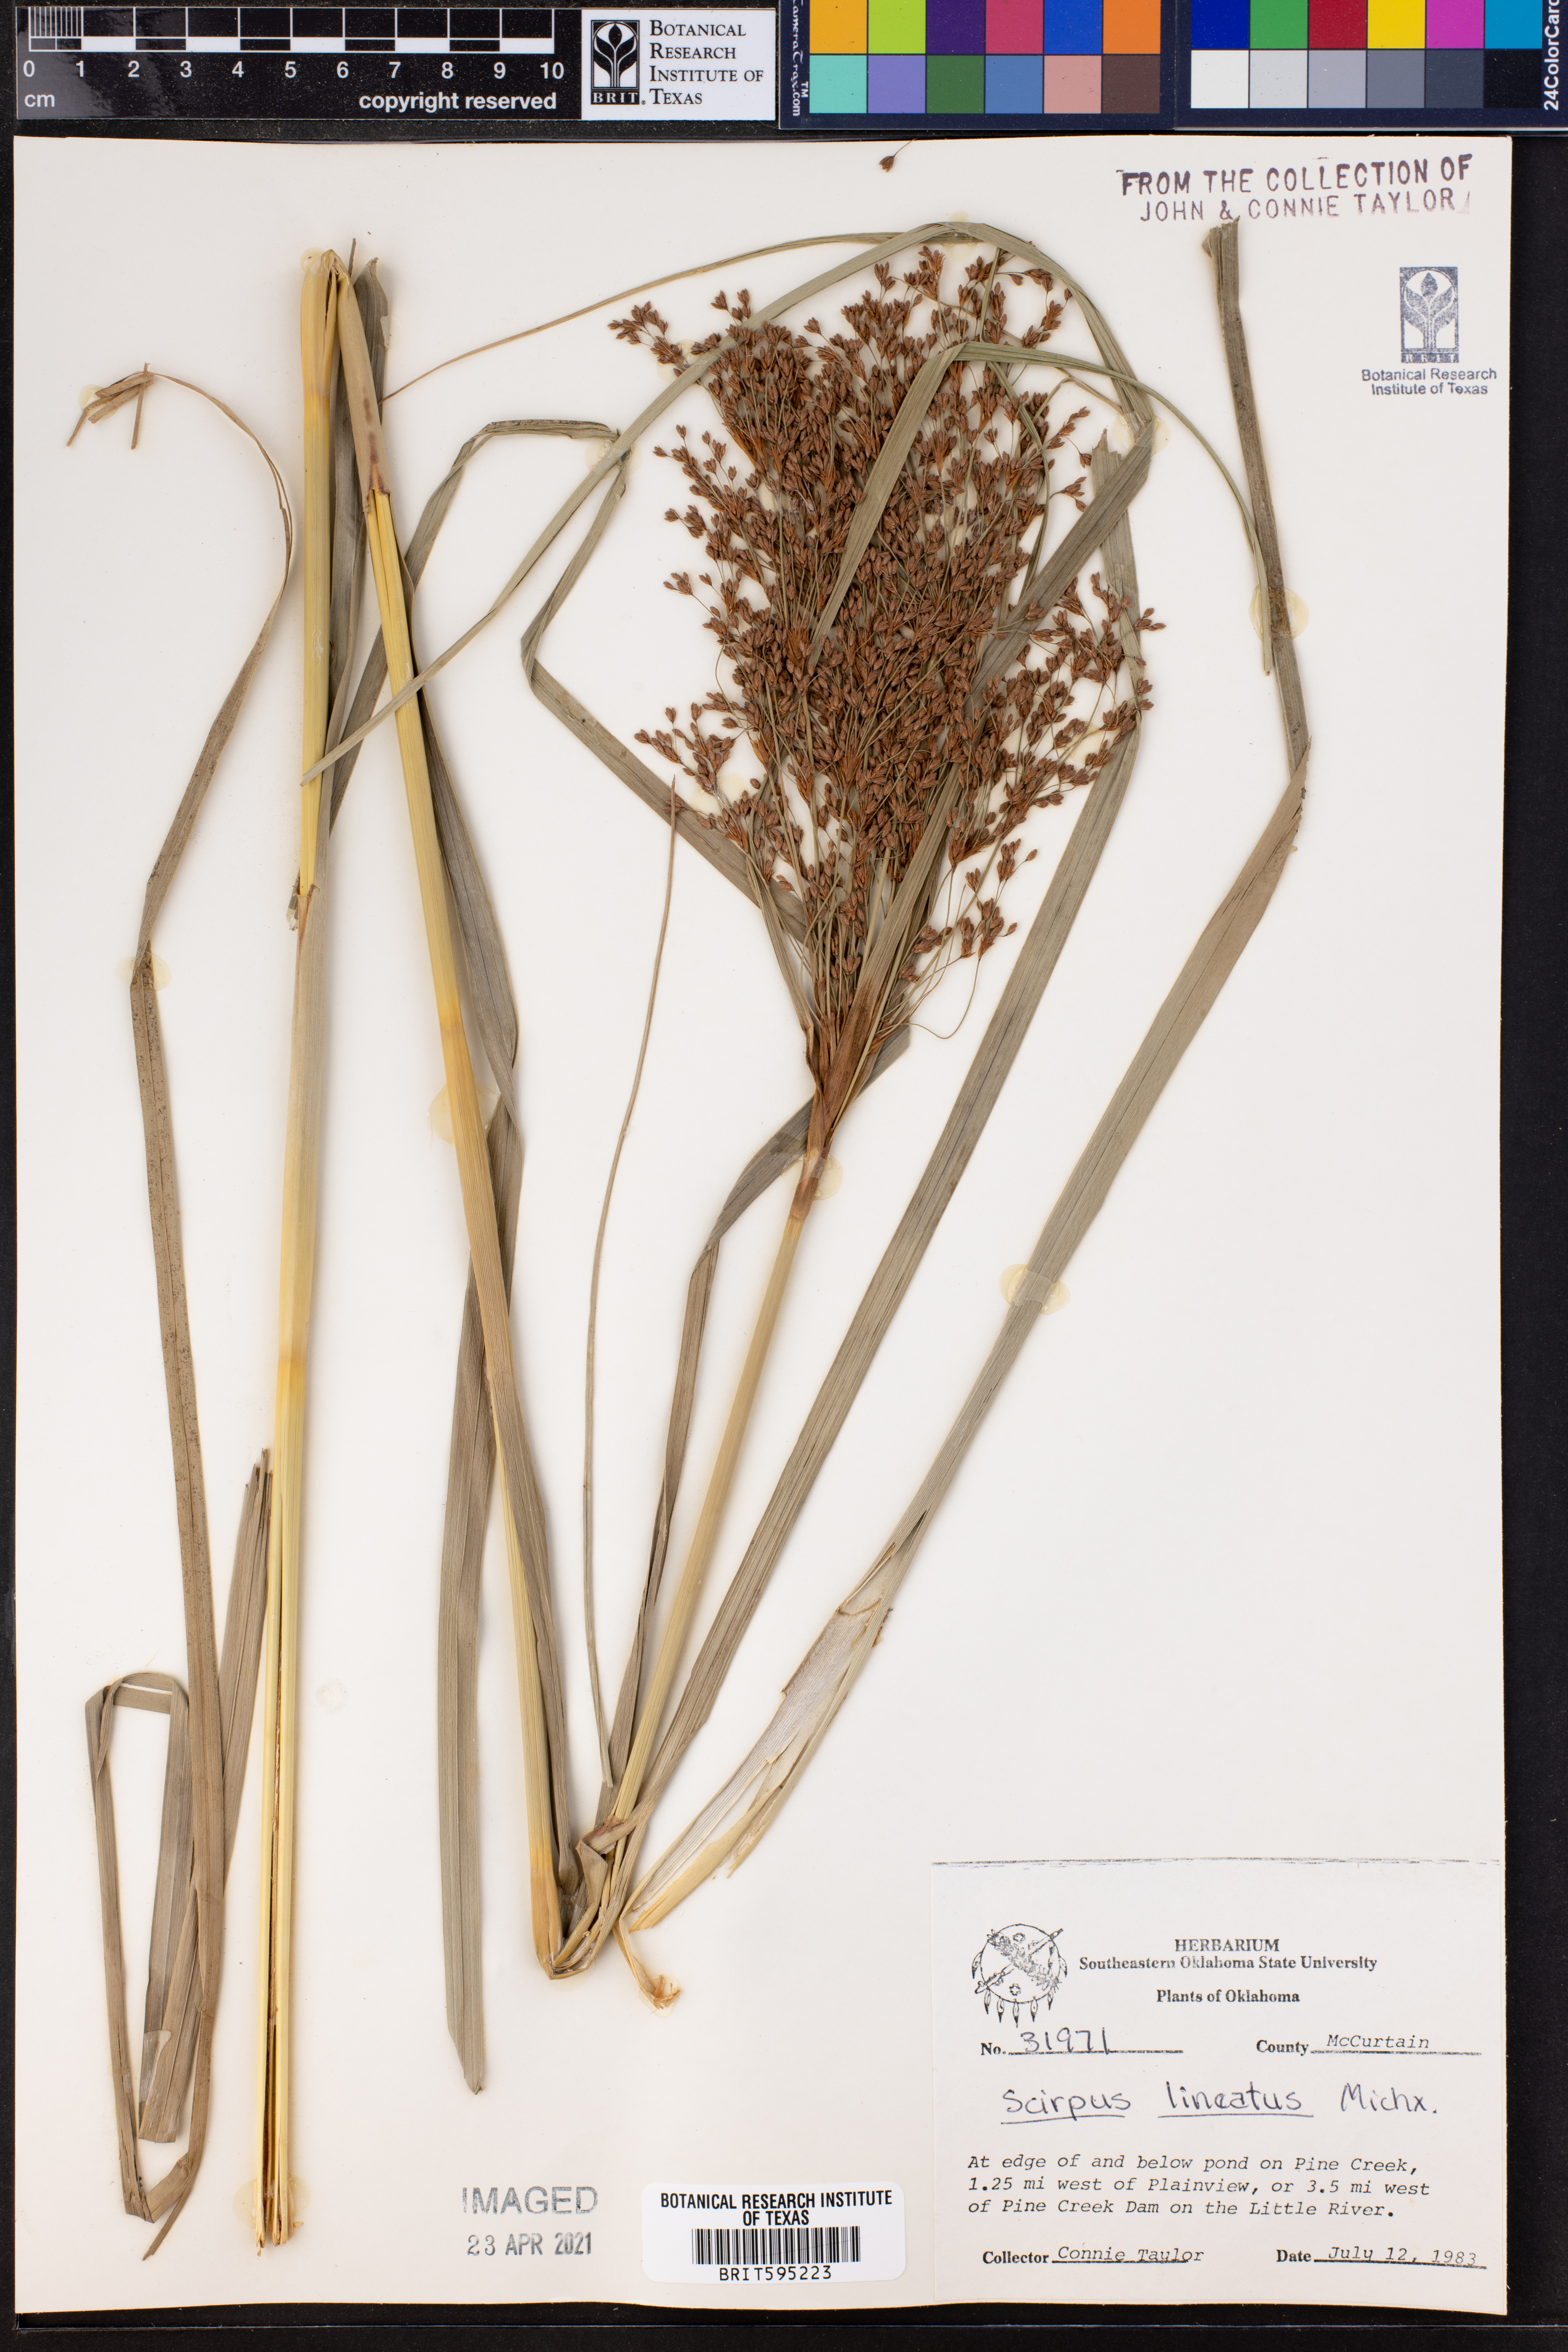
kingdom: Plantae
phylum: Tracheophyta
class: Liliopsida
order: Poales
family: Cyperaceae
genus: Scirpus
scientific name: Scirpus lineatus
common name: Drooping bulrush
